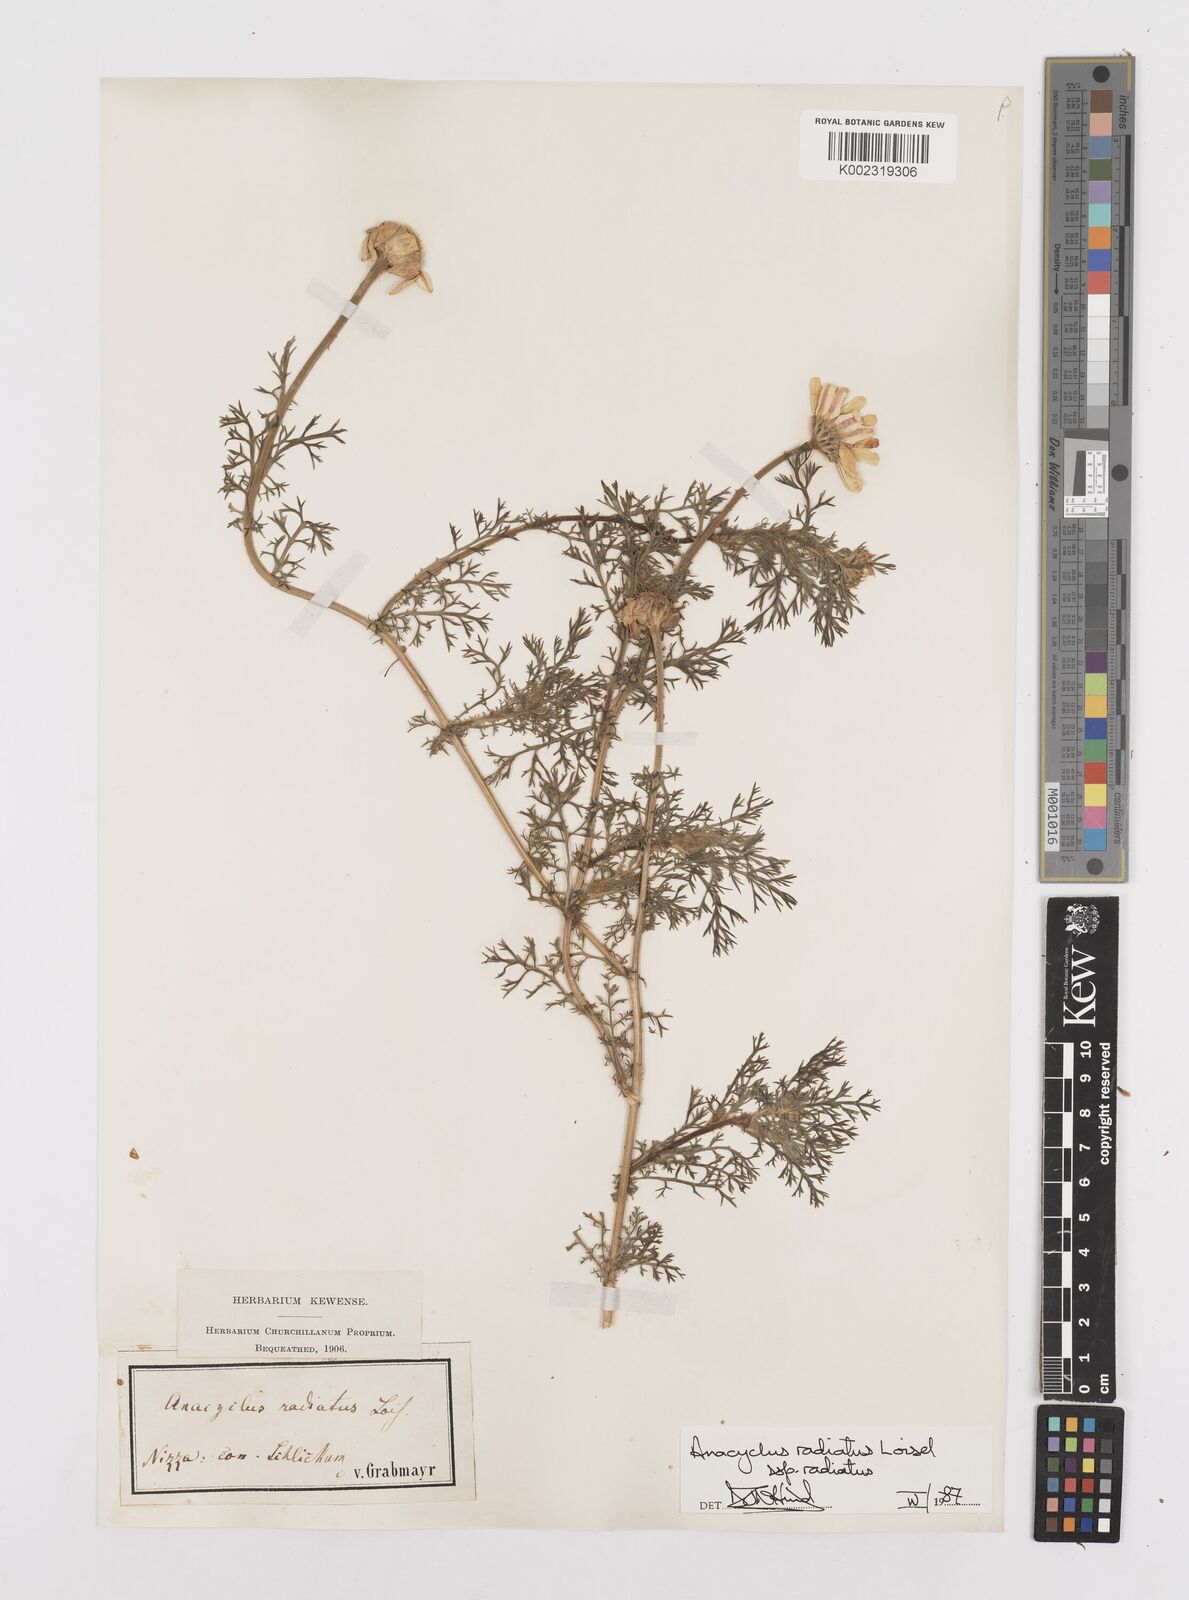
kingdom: Plantae
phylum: Tracheophyta
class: Magnoliopsida
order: Asterales
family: Asteraceae
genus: Anacyclus
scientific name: Anacyclus radiatus
